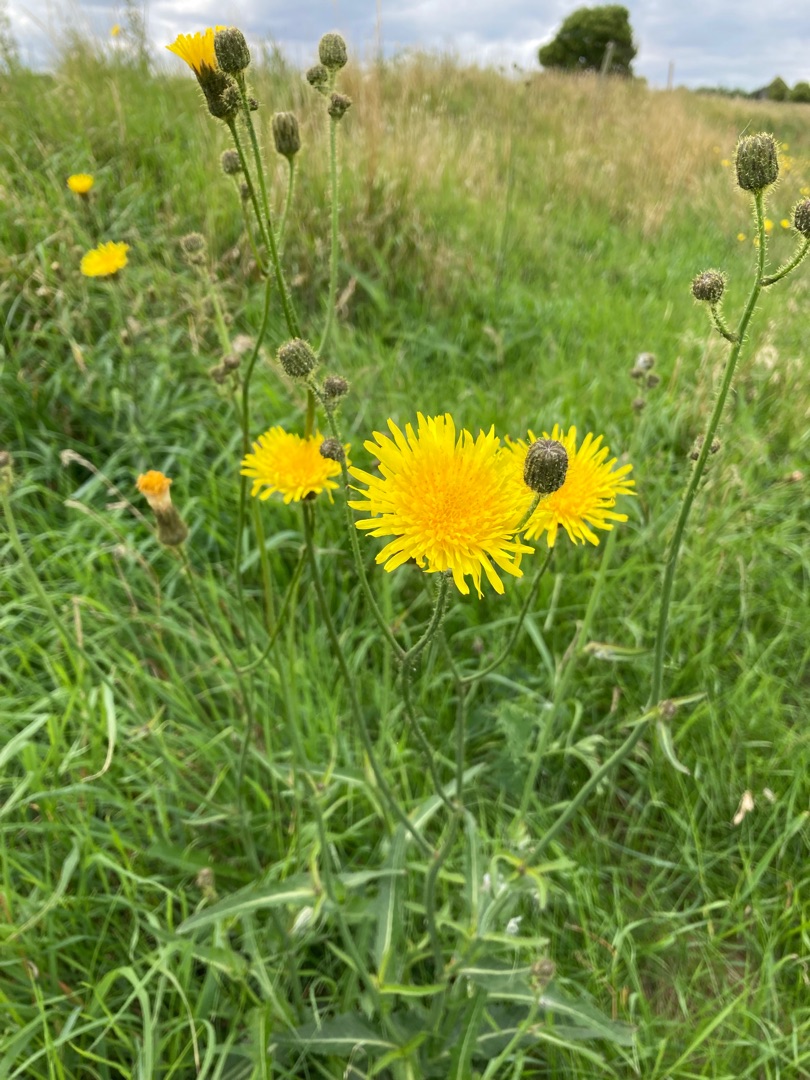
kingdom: Plantae
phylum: Tracheophyta
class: Magnoliopsida
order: Asterales
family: Asteraceae
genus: Sonchus
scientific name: Sonchus arvensis
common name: Ager-svinemælk
